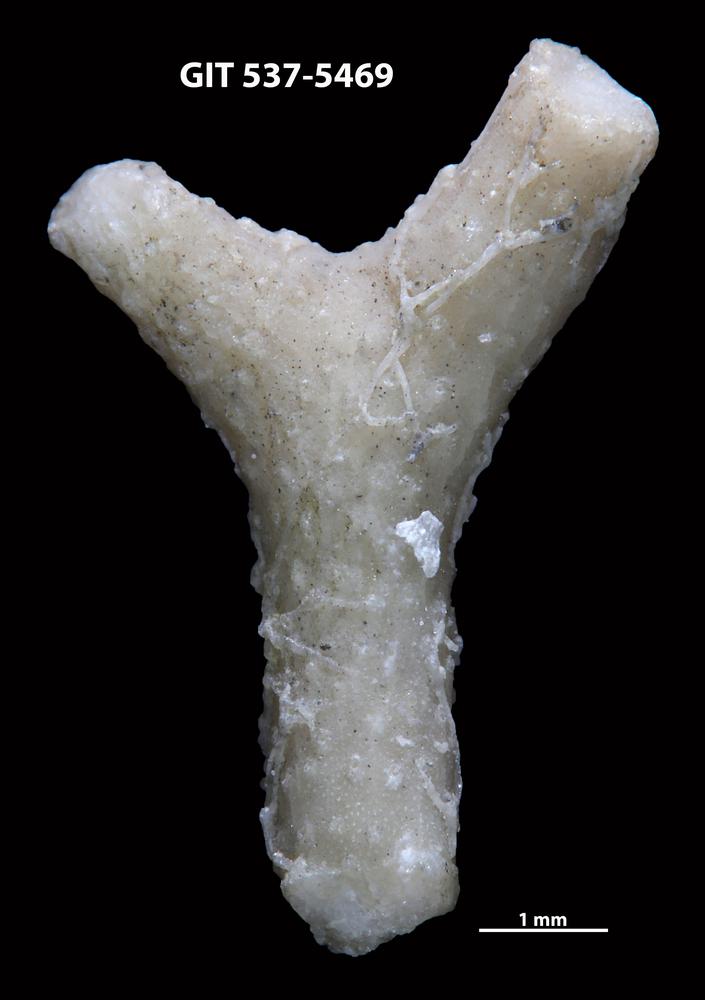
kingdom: Animalia
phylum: Bryozoa
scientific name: Bryozoa
